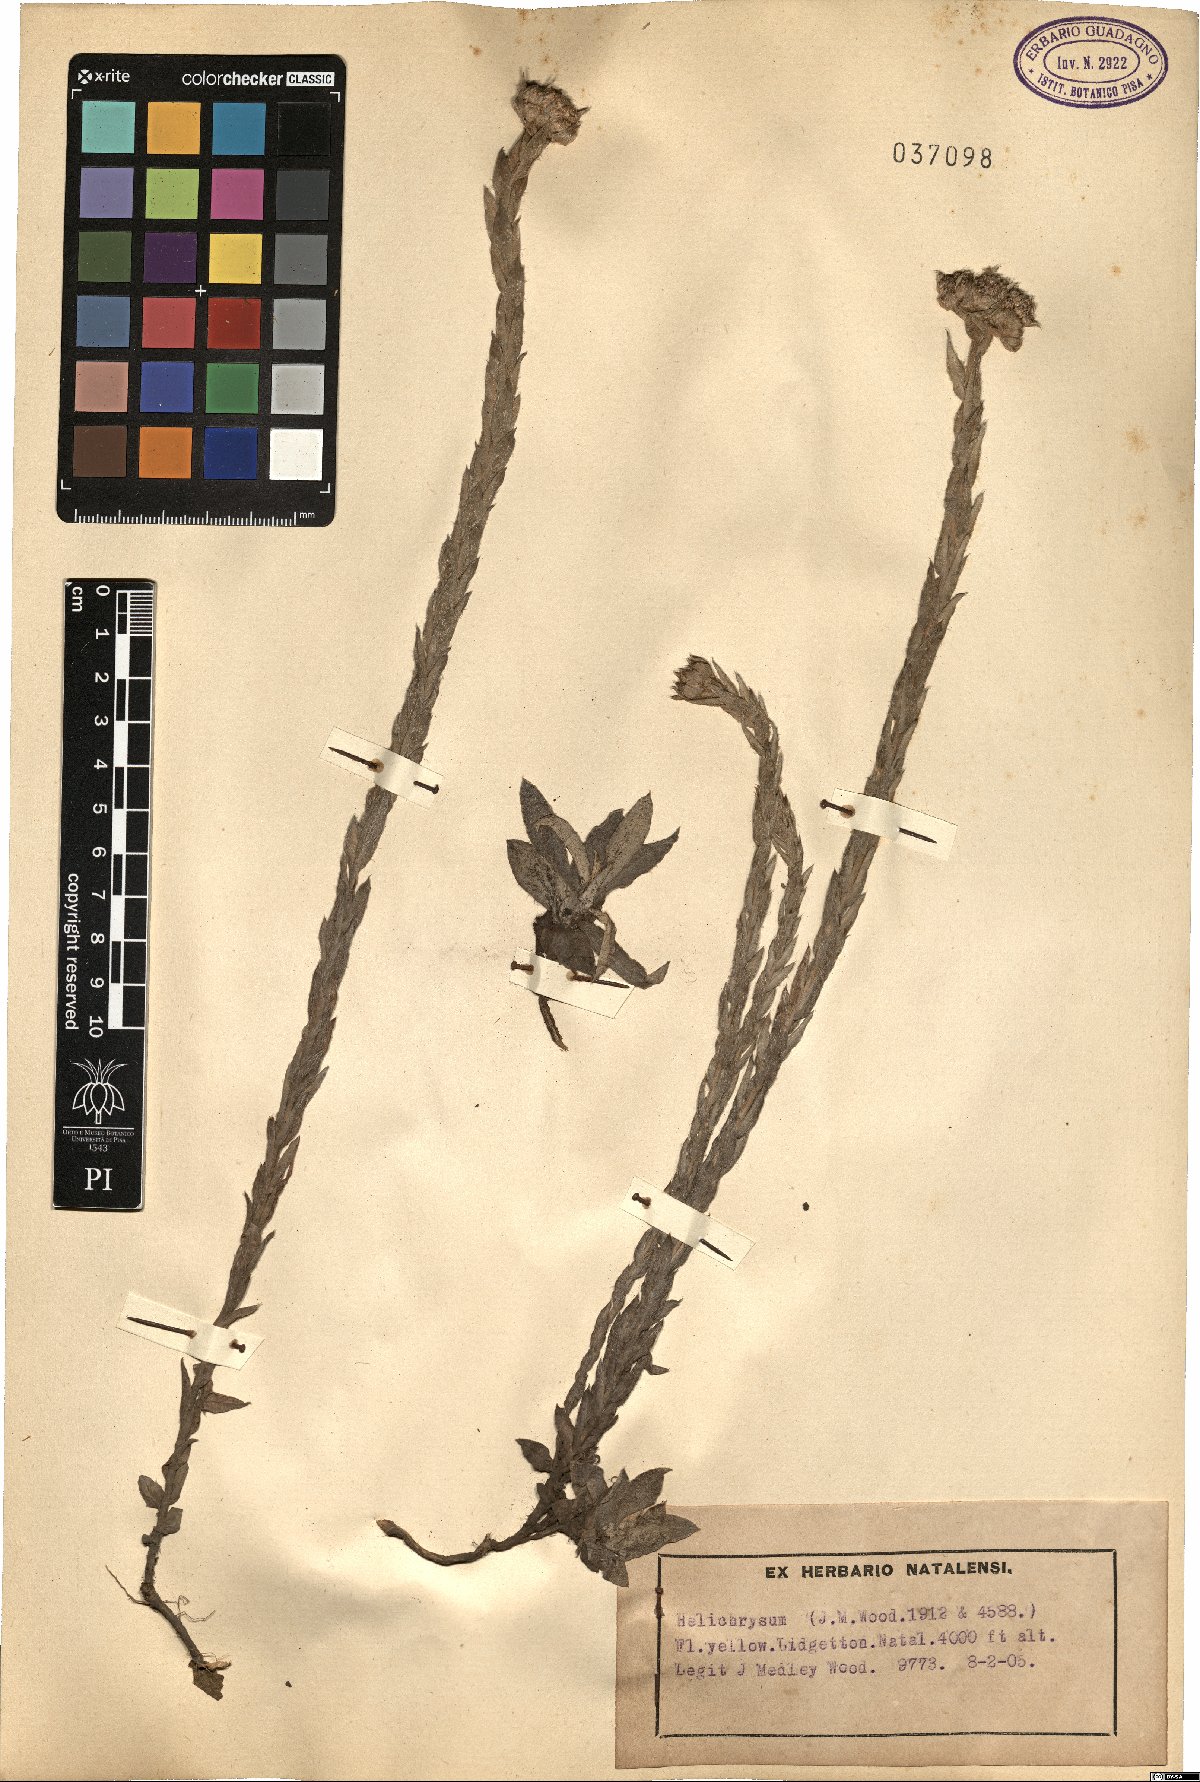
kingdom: Plantae
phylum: Tracheophyta
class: Magnoliopsida
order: Asterales
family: Asteraceae
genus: Helichrysum
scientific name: Helichrysum
